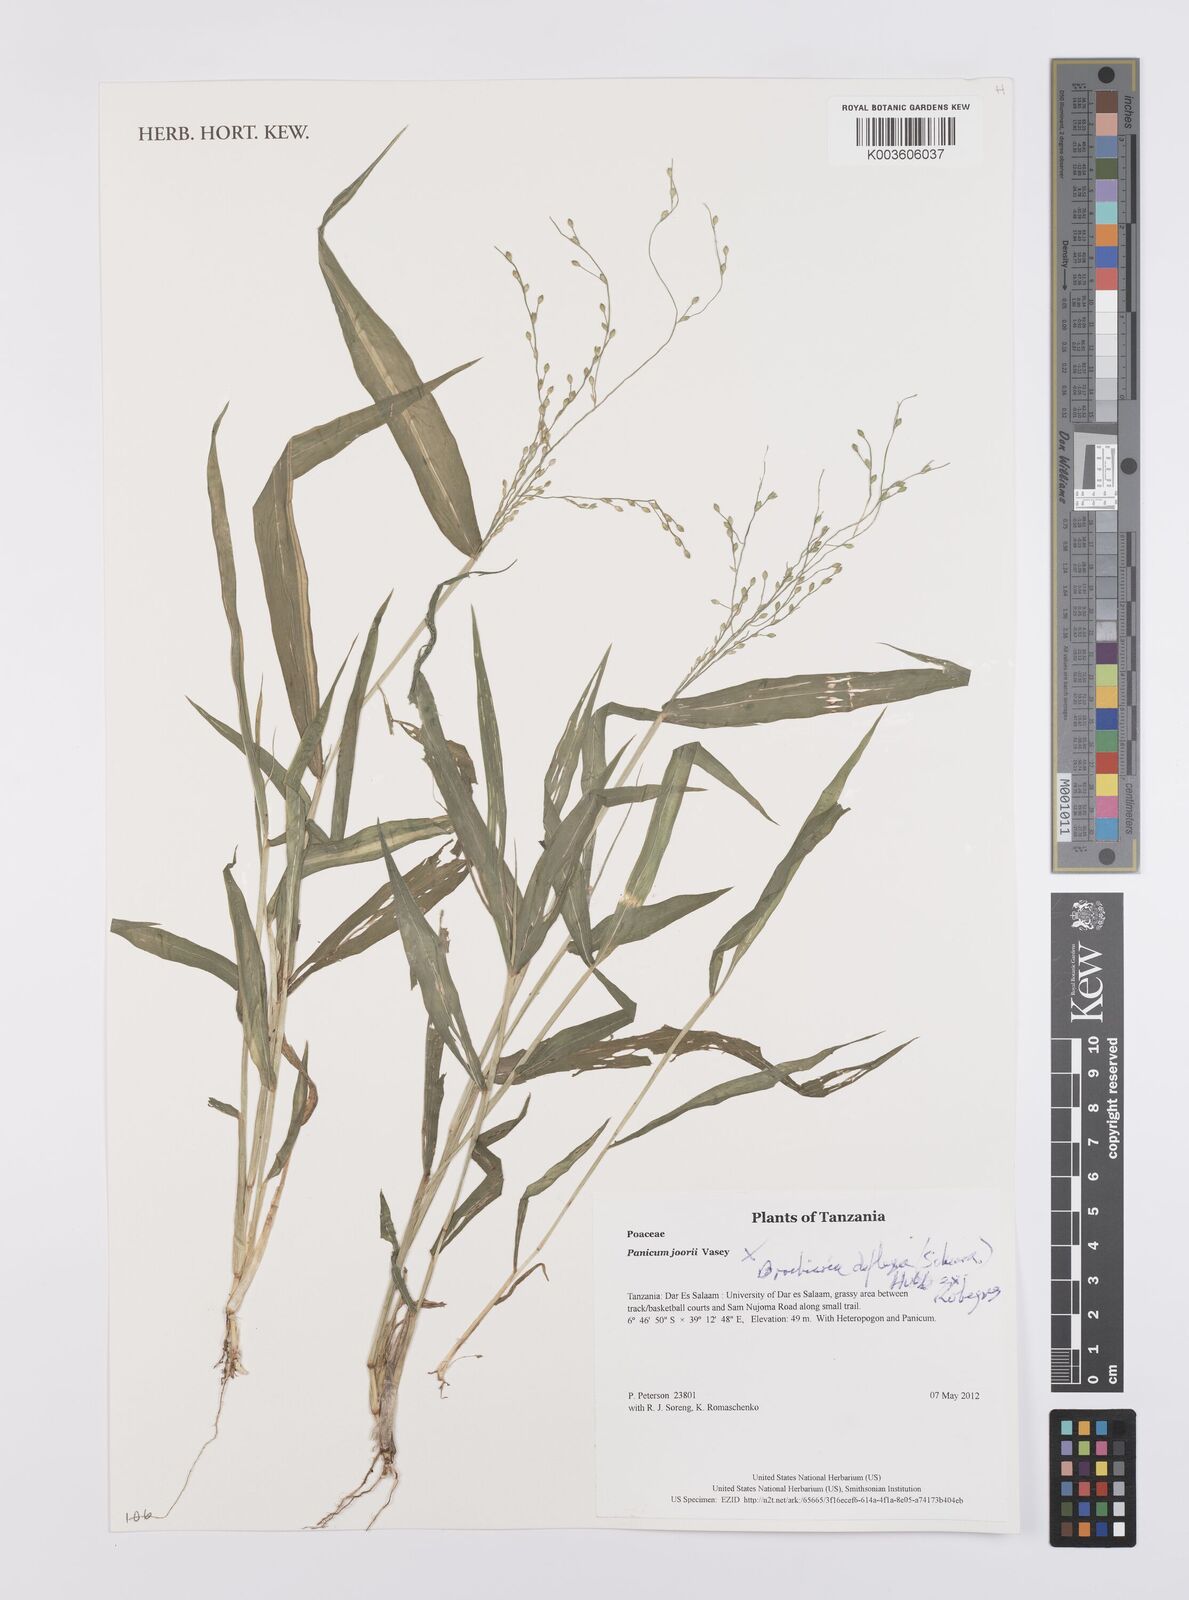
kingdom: Plantae
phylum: Tracheophyta
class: Liliopsida
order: Poales
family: Poaceae
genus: Urochloa
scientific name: Urochloa deflexa
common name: Guinea millet
